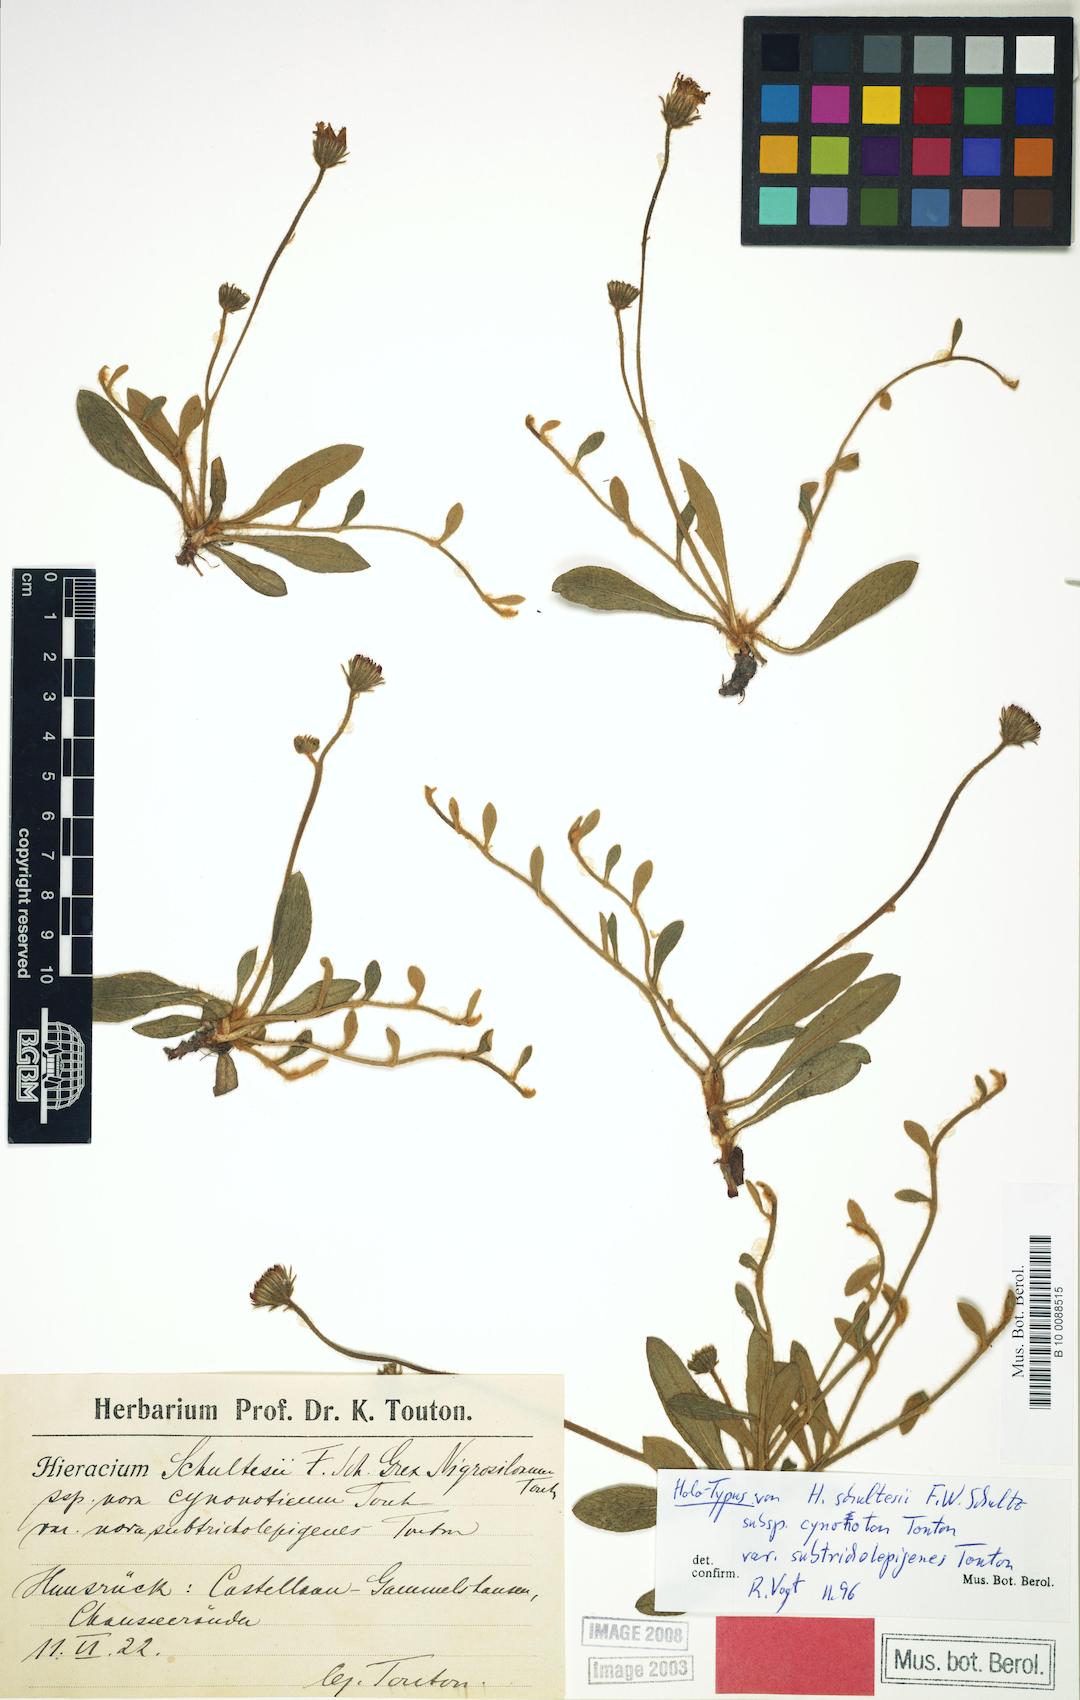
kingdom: Plantae
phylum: Tracheophyta
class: Magnoliopsida
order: Asterales
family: Asteraceae
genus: Pilosella
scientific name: Pilosella schultesii
